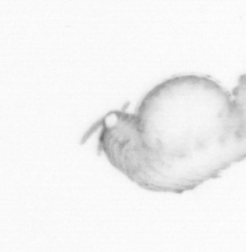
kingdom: Animalia
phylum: Annelida
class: Polychaeta
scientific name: Polychaeta
